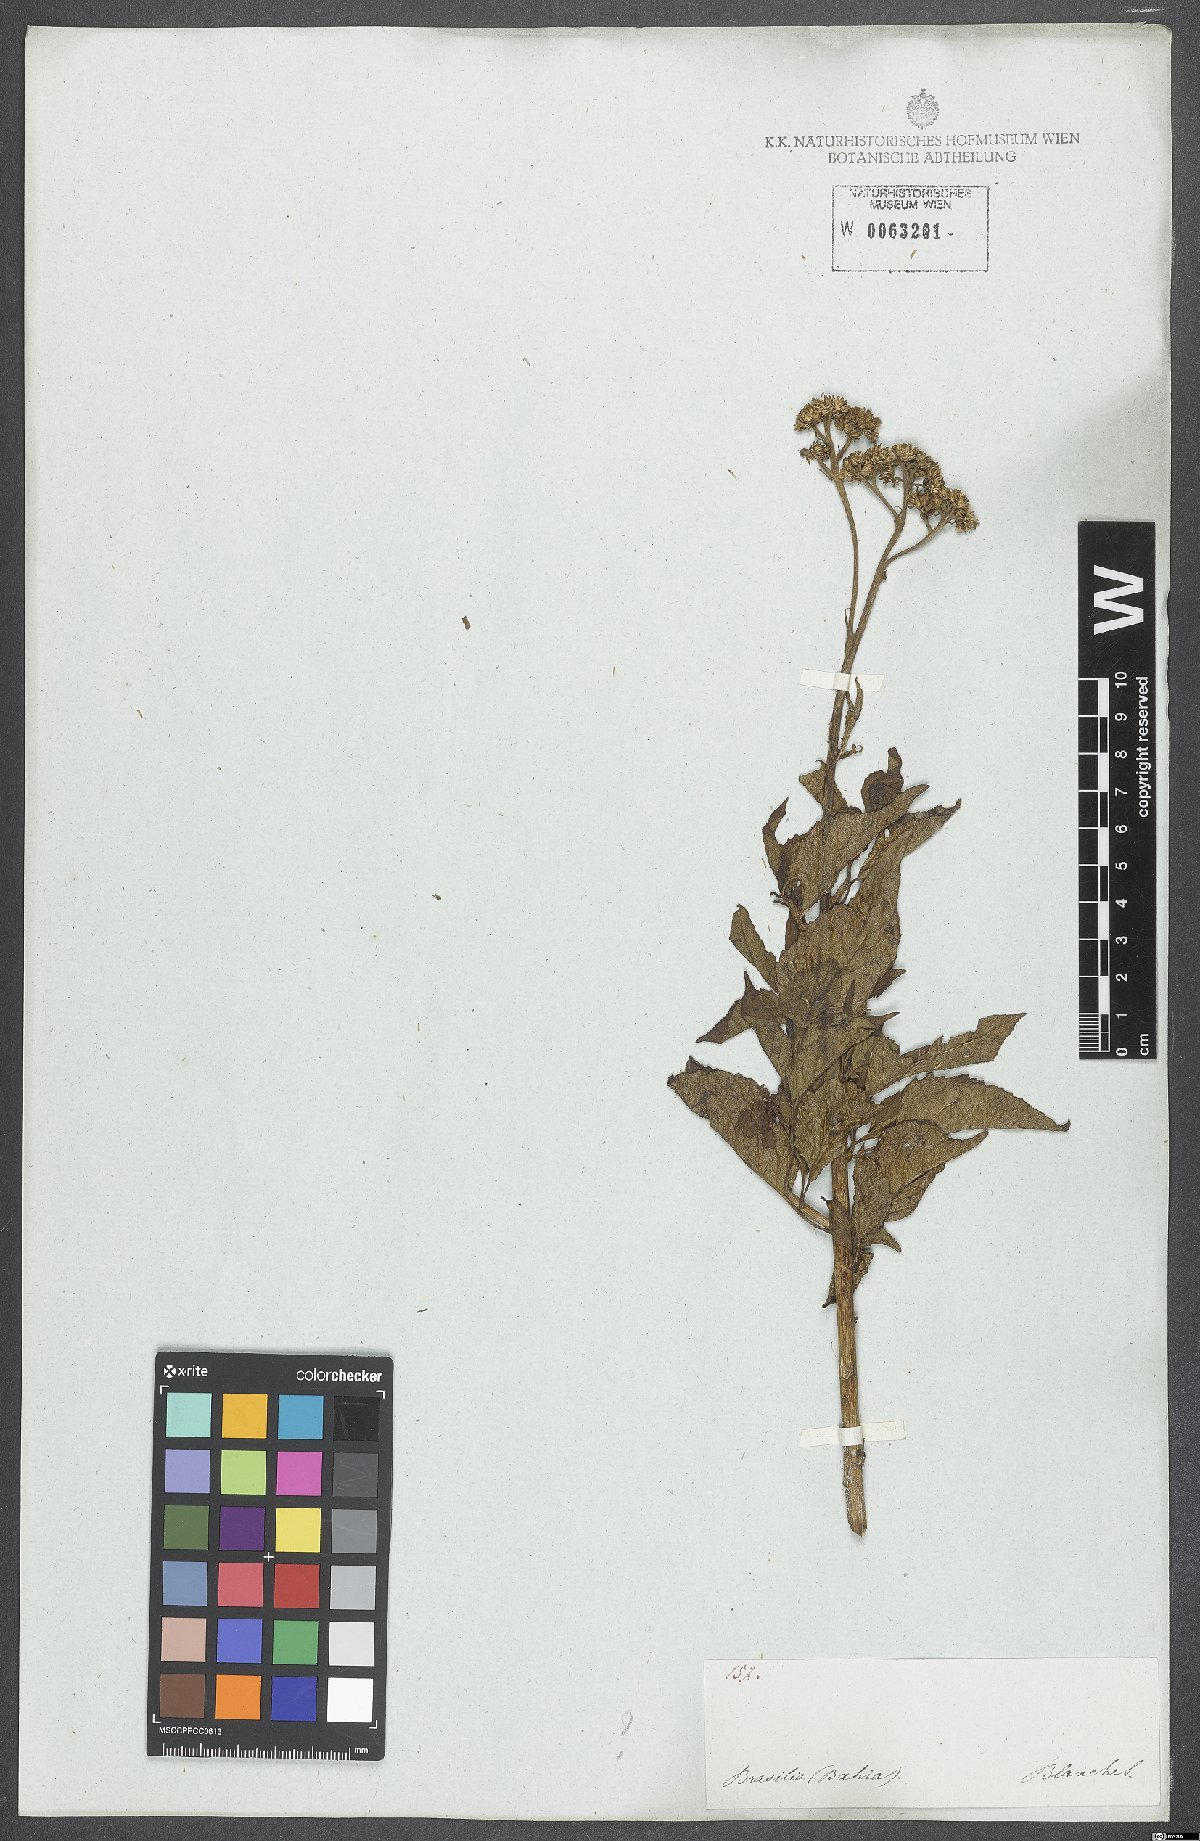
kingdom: Plantae
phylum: Tracheophyta
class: Magnoliopsida
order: Asterales
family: Asteraceae
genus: Grazielia
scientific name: Grazielia serrata
